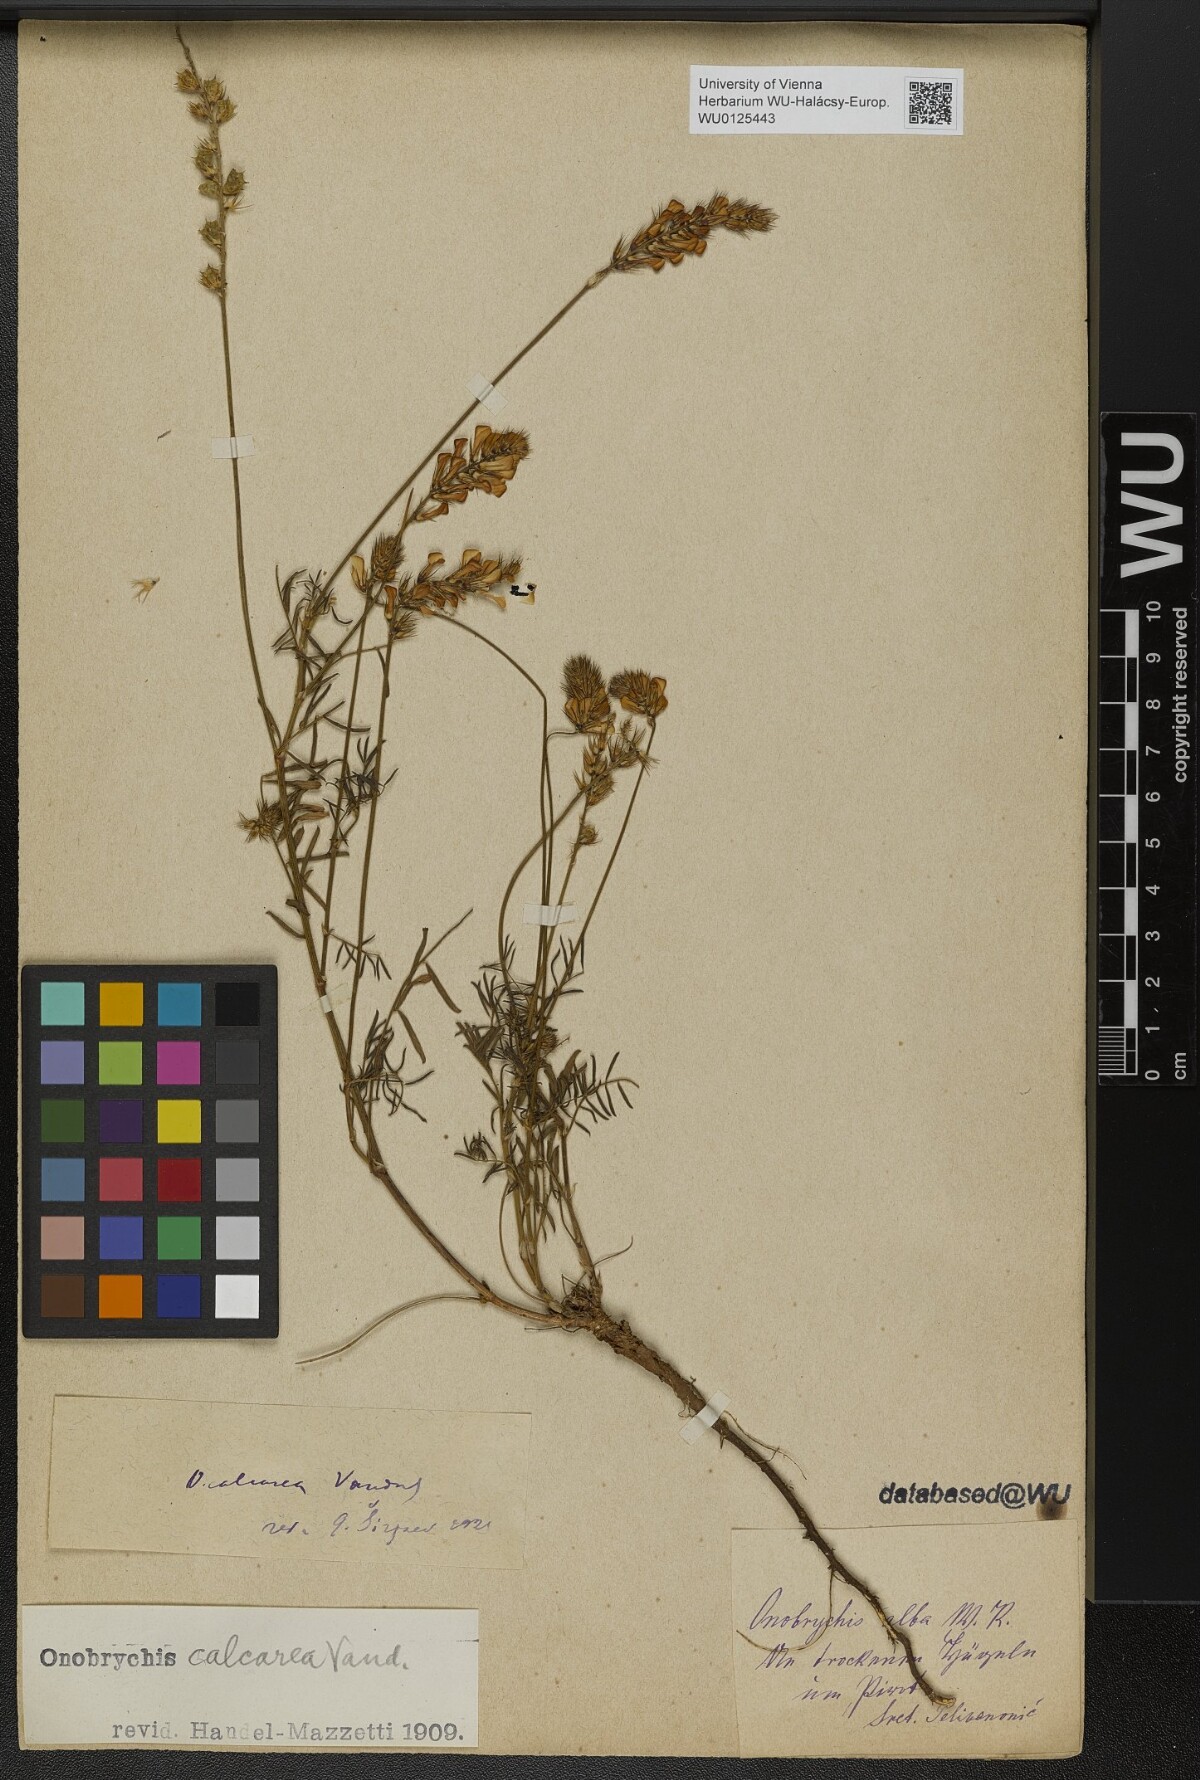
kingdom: Plantae
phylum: Tracheophyta
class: Magnoliopsida
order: Fabales
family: Fabaceae
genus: Onobrychis
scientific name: Onobrychis alba
